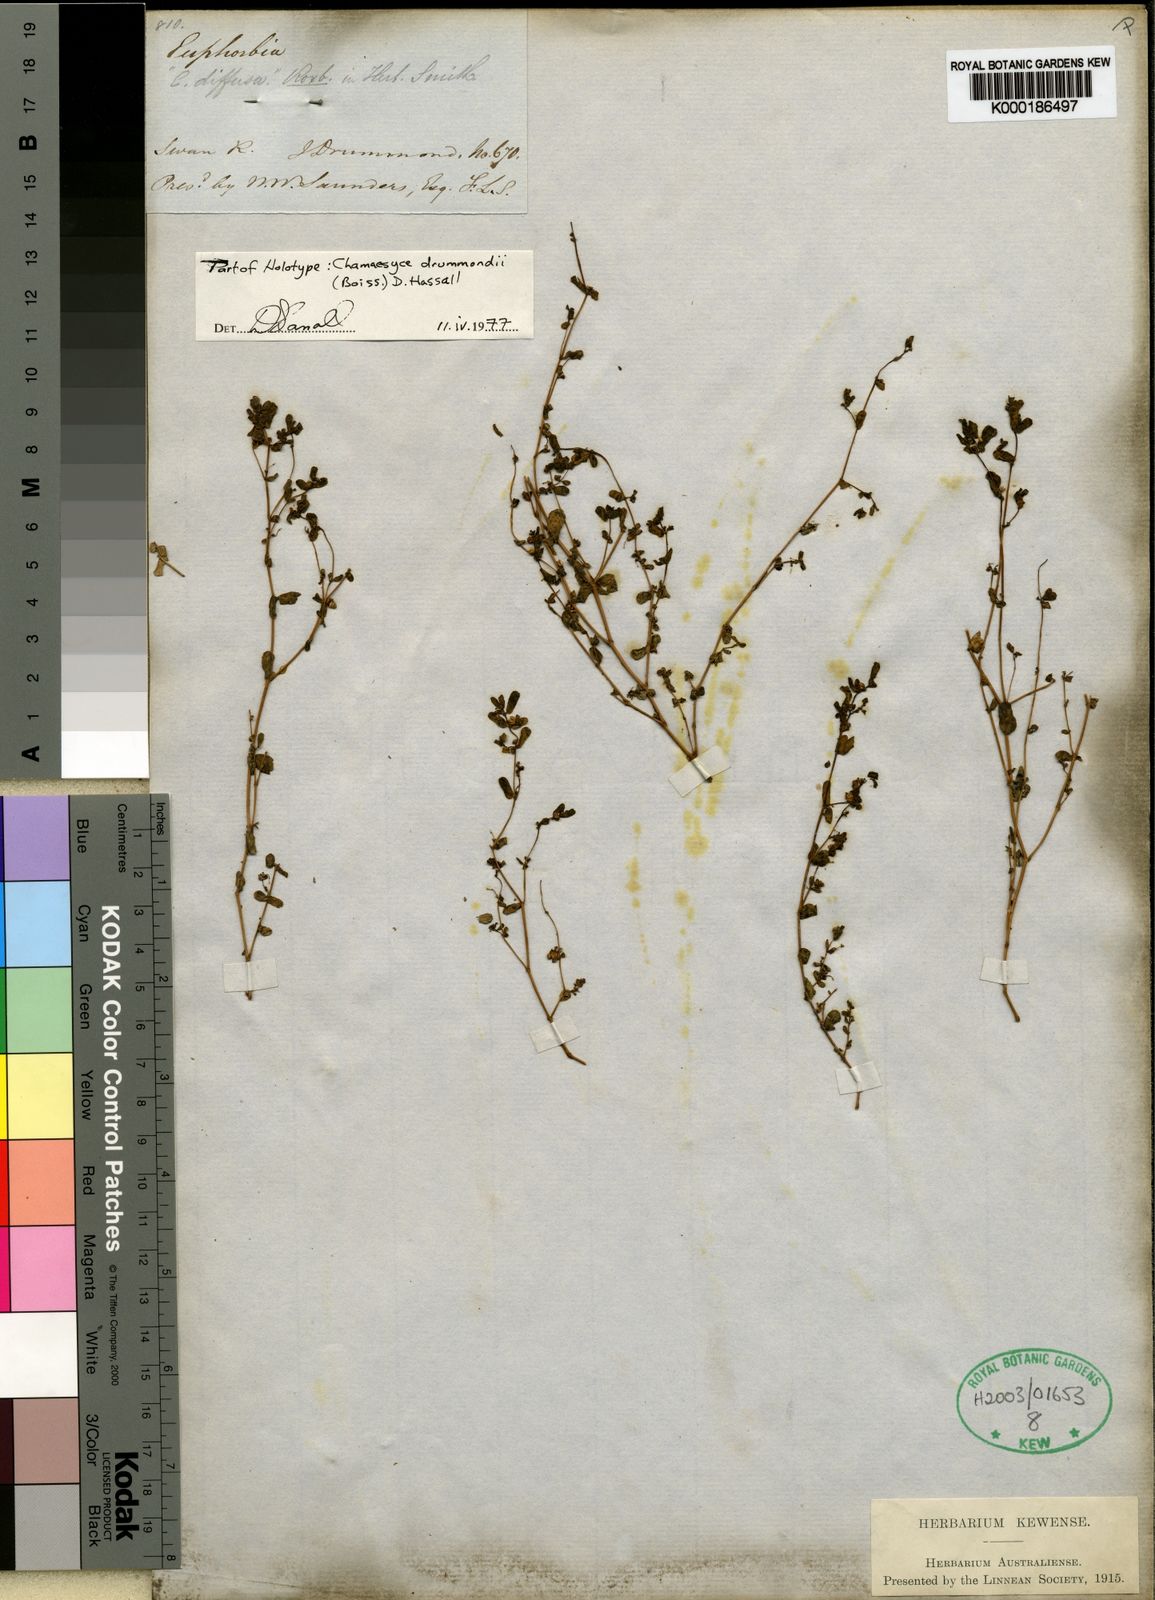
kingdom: Plantae
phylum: Tracheophyta
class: Magnoliopsida
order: Malpighiales
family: Euphorbiaceae
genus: Euphorbia
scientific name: Euphorbia dallachyana
